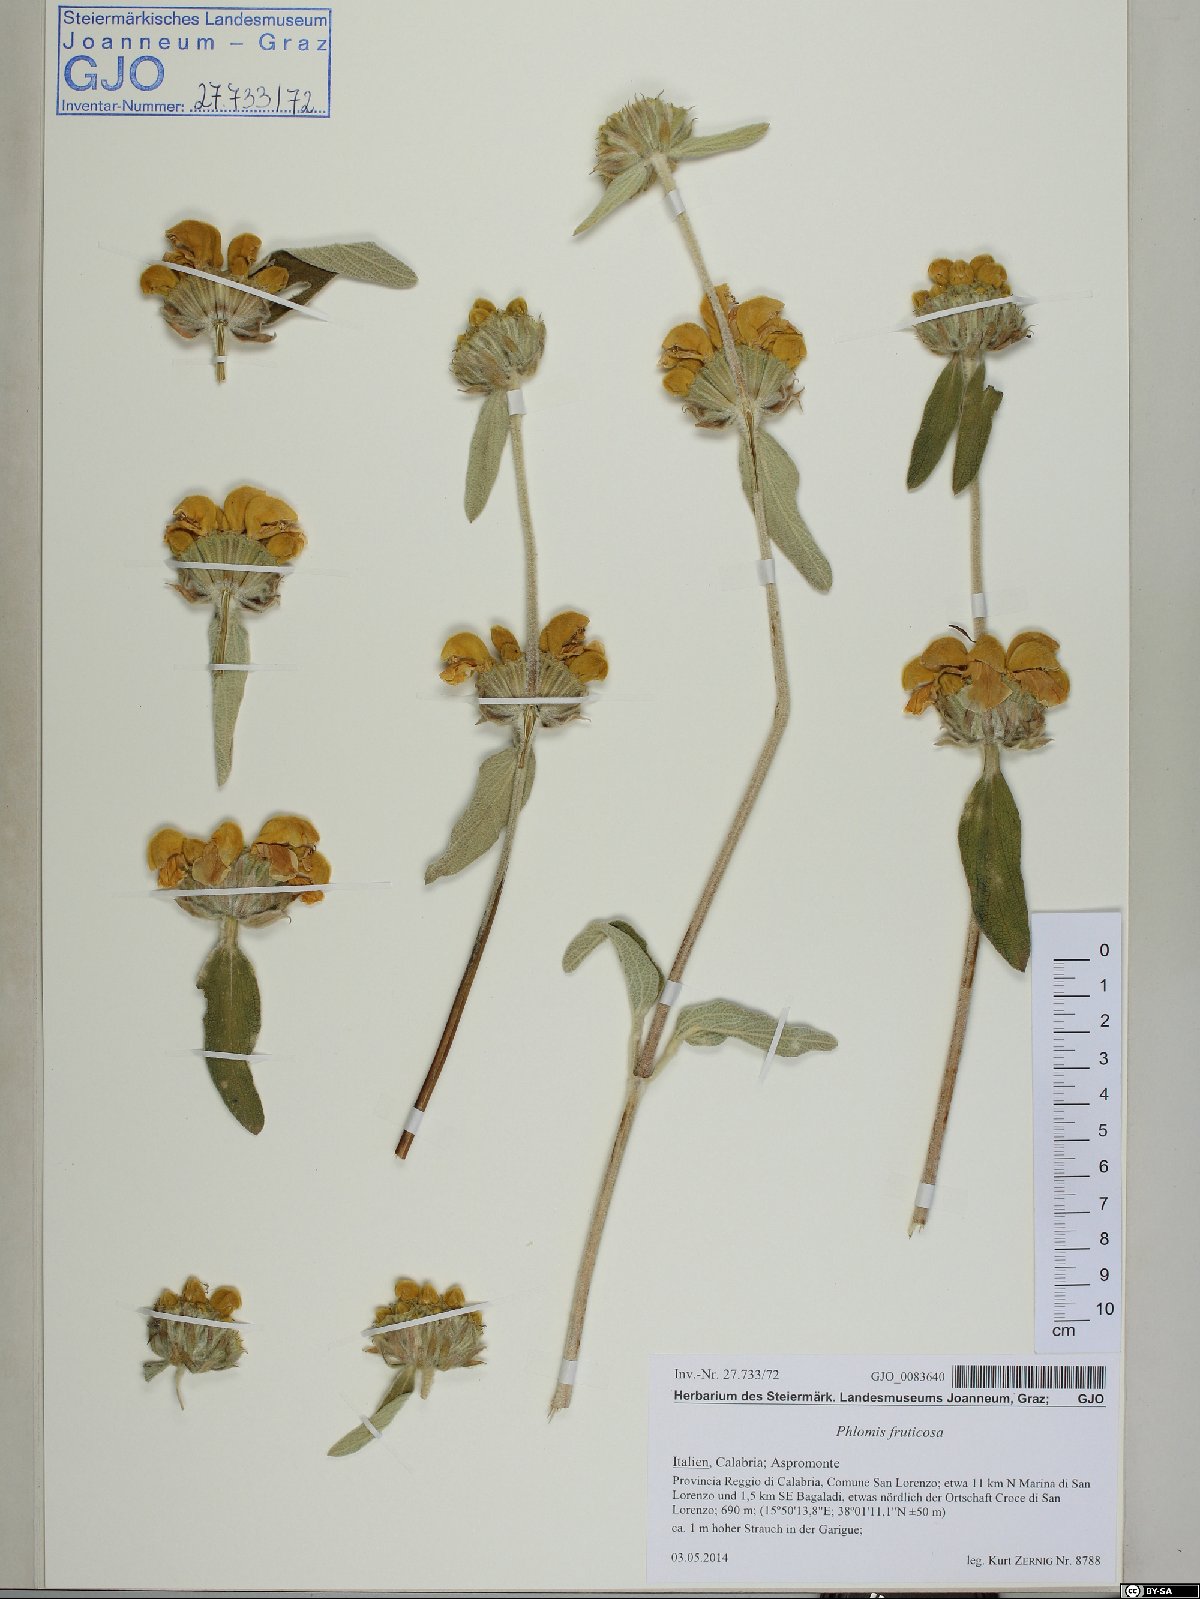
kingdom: Plantae
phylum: Tracheophyta
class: Magnoliopsida
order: Lamiales
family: Lamiaceae
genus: Phlomis
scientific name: Phlomis fruticosa
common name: Jerusalem sage
